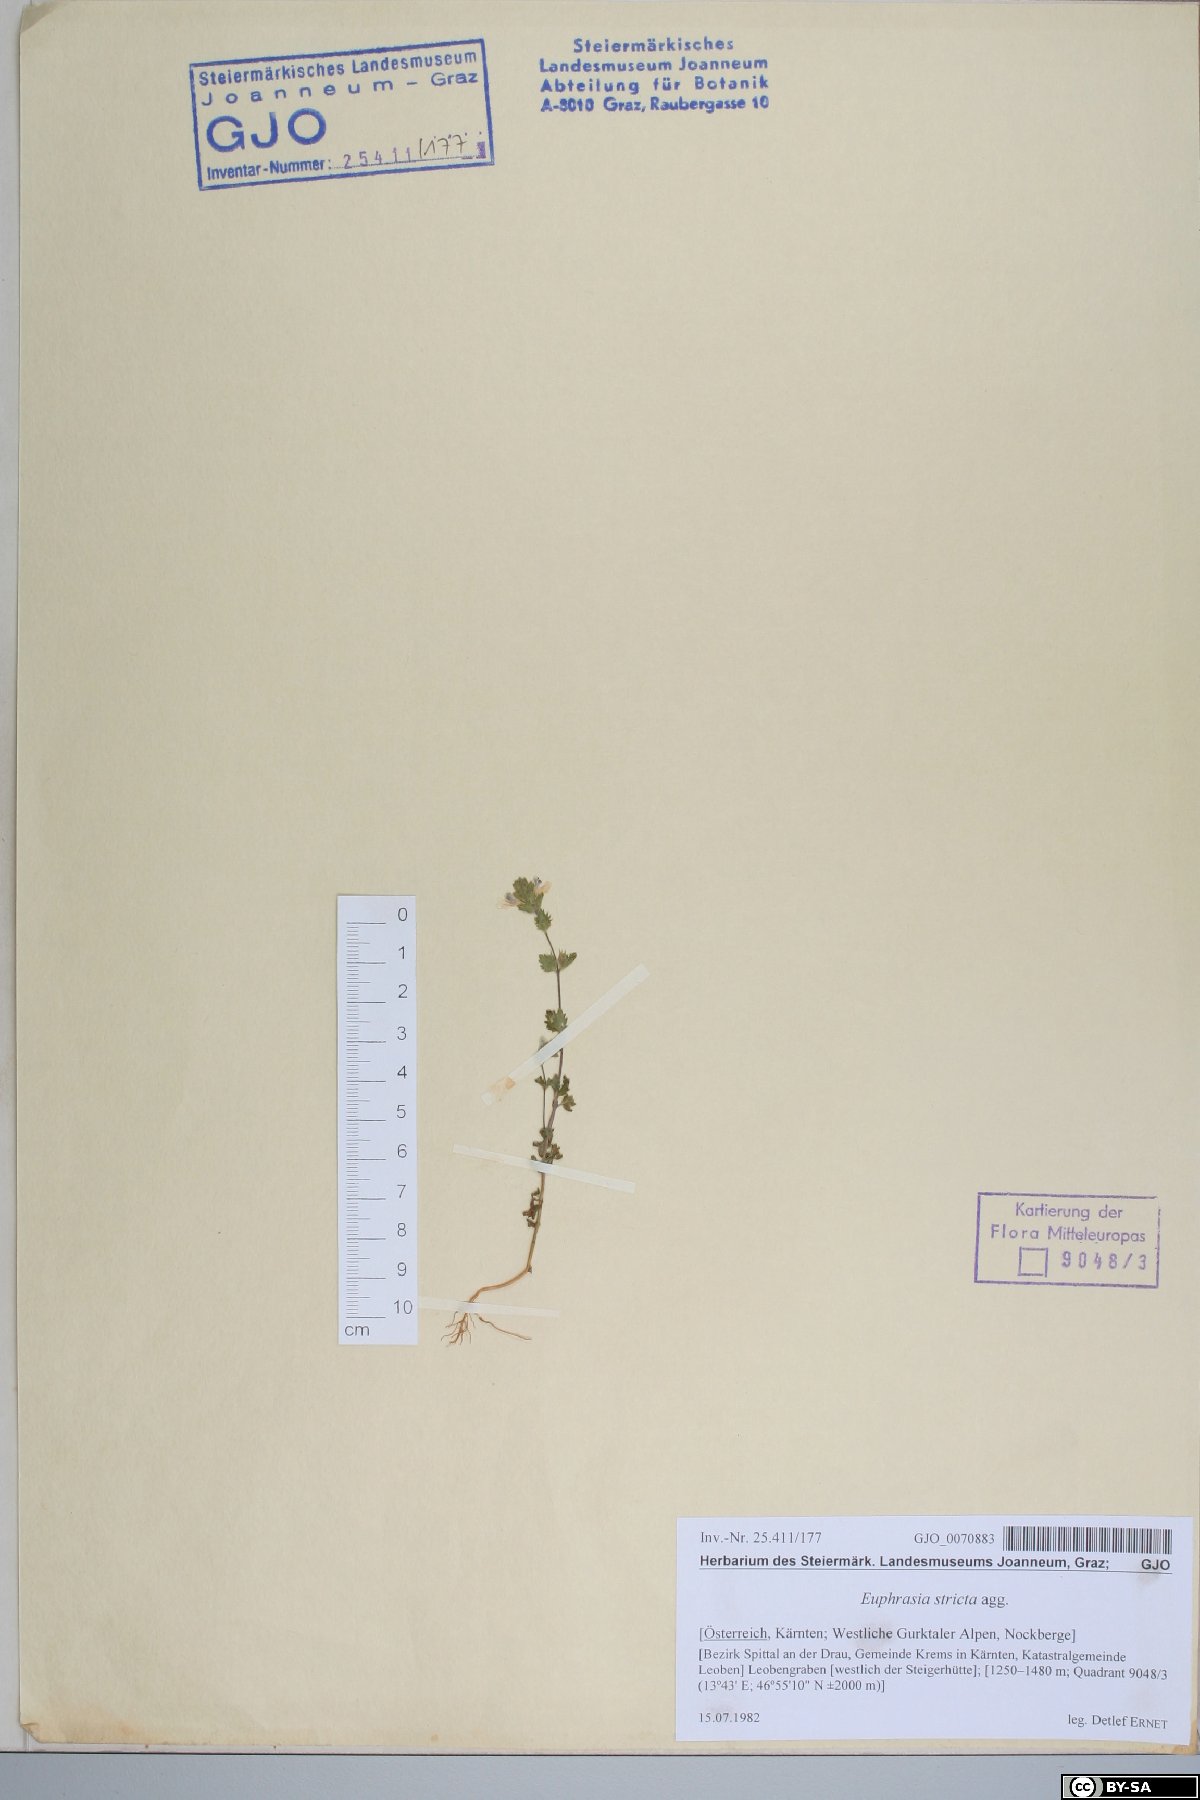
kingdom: Plantae
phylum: Tracheophyta
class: Magnoliopsida
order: Lamiales
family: Orobanchaceae
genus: Euphrasia
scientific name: Euphrasia stricta
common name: Drug eyebright
